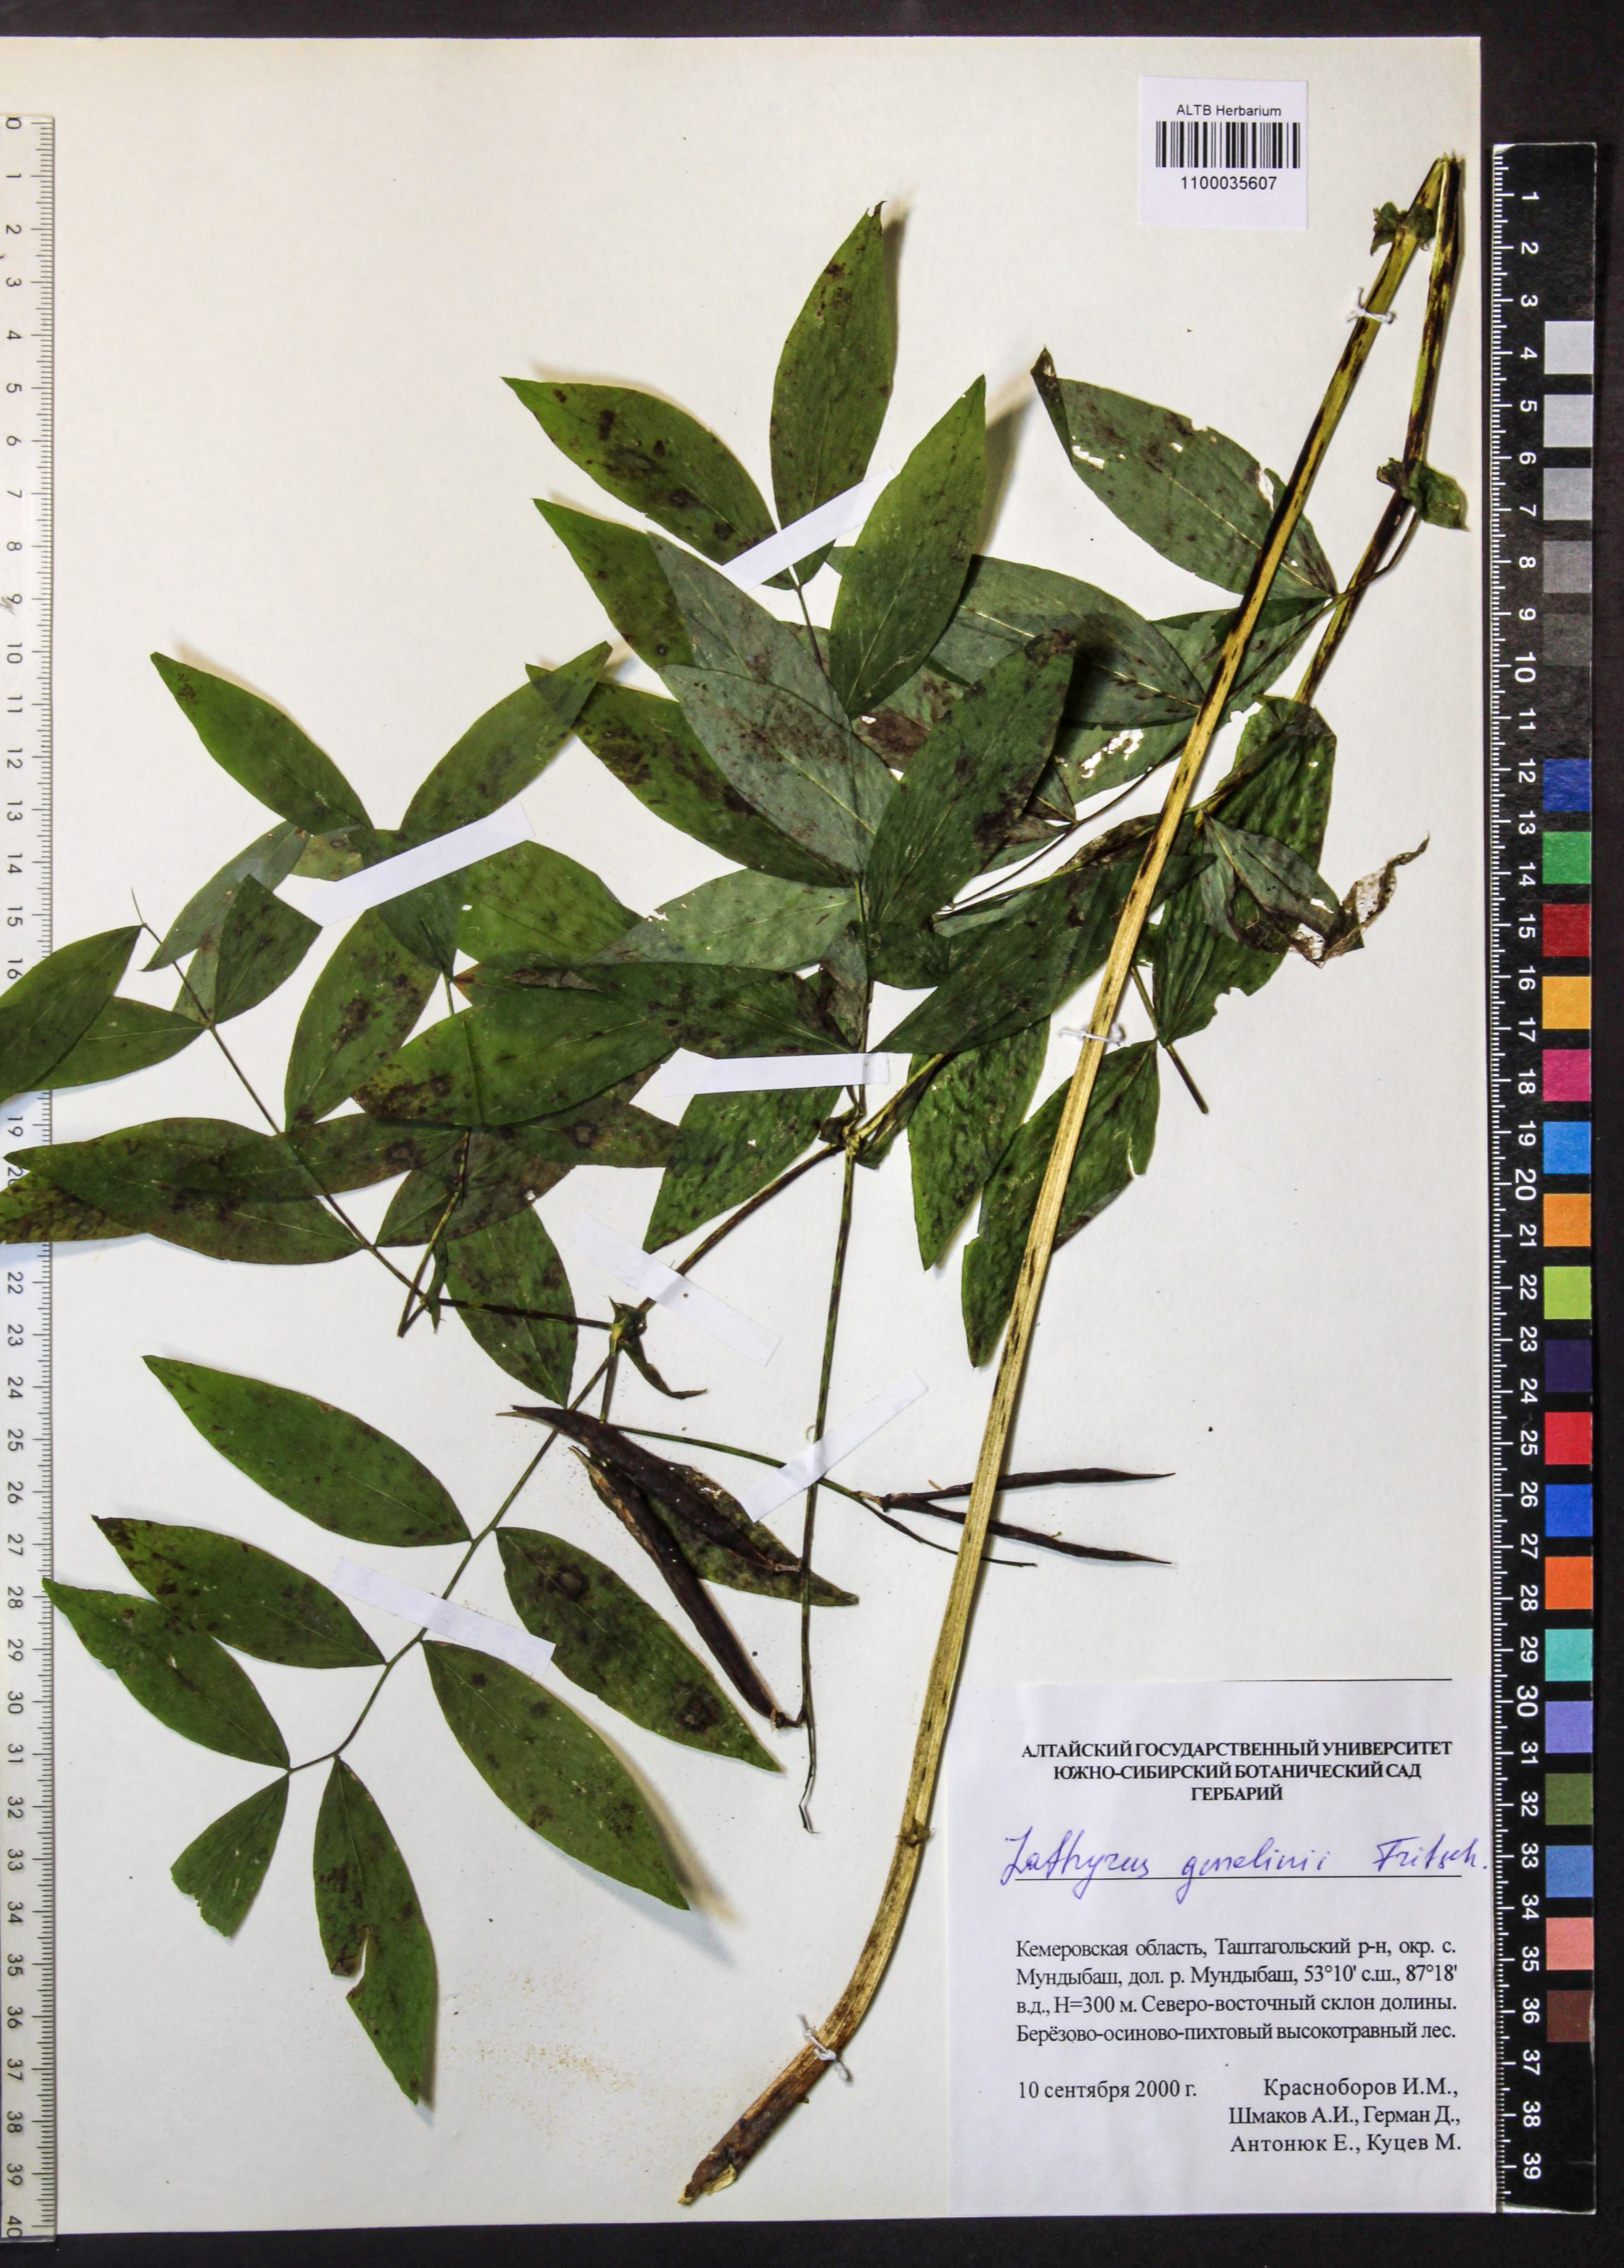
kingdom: Plantae
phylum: Tracheophyta
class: Magnoliopsida
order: Fabales
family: Fabaceae
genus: Lathyrus
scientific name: Lathyrus gmelinii
